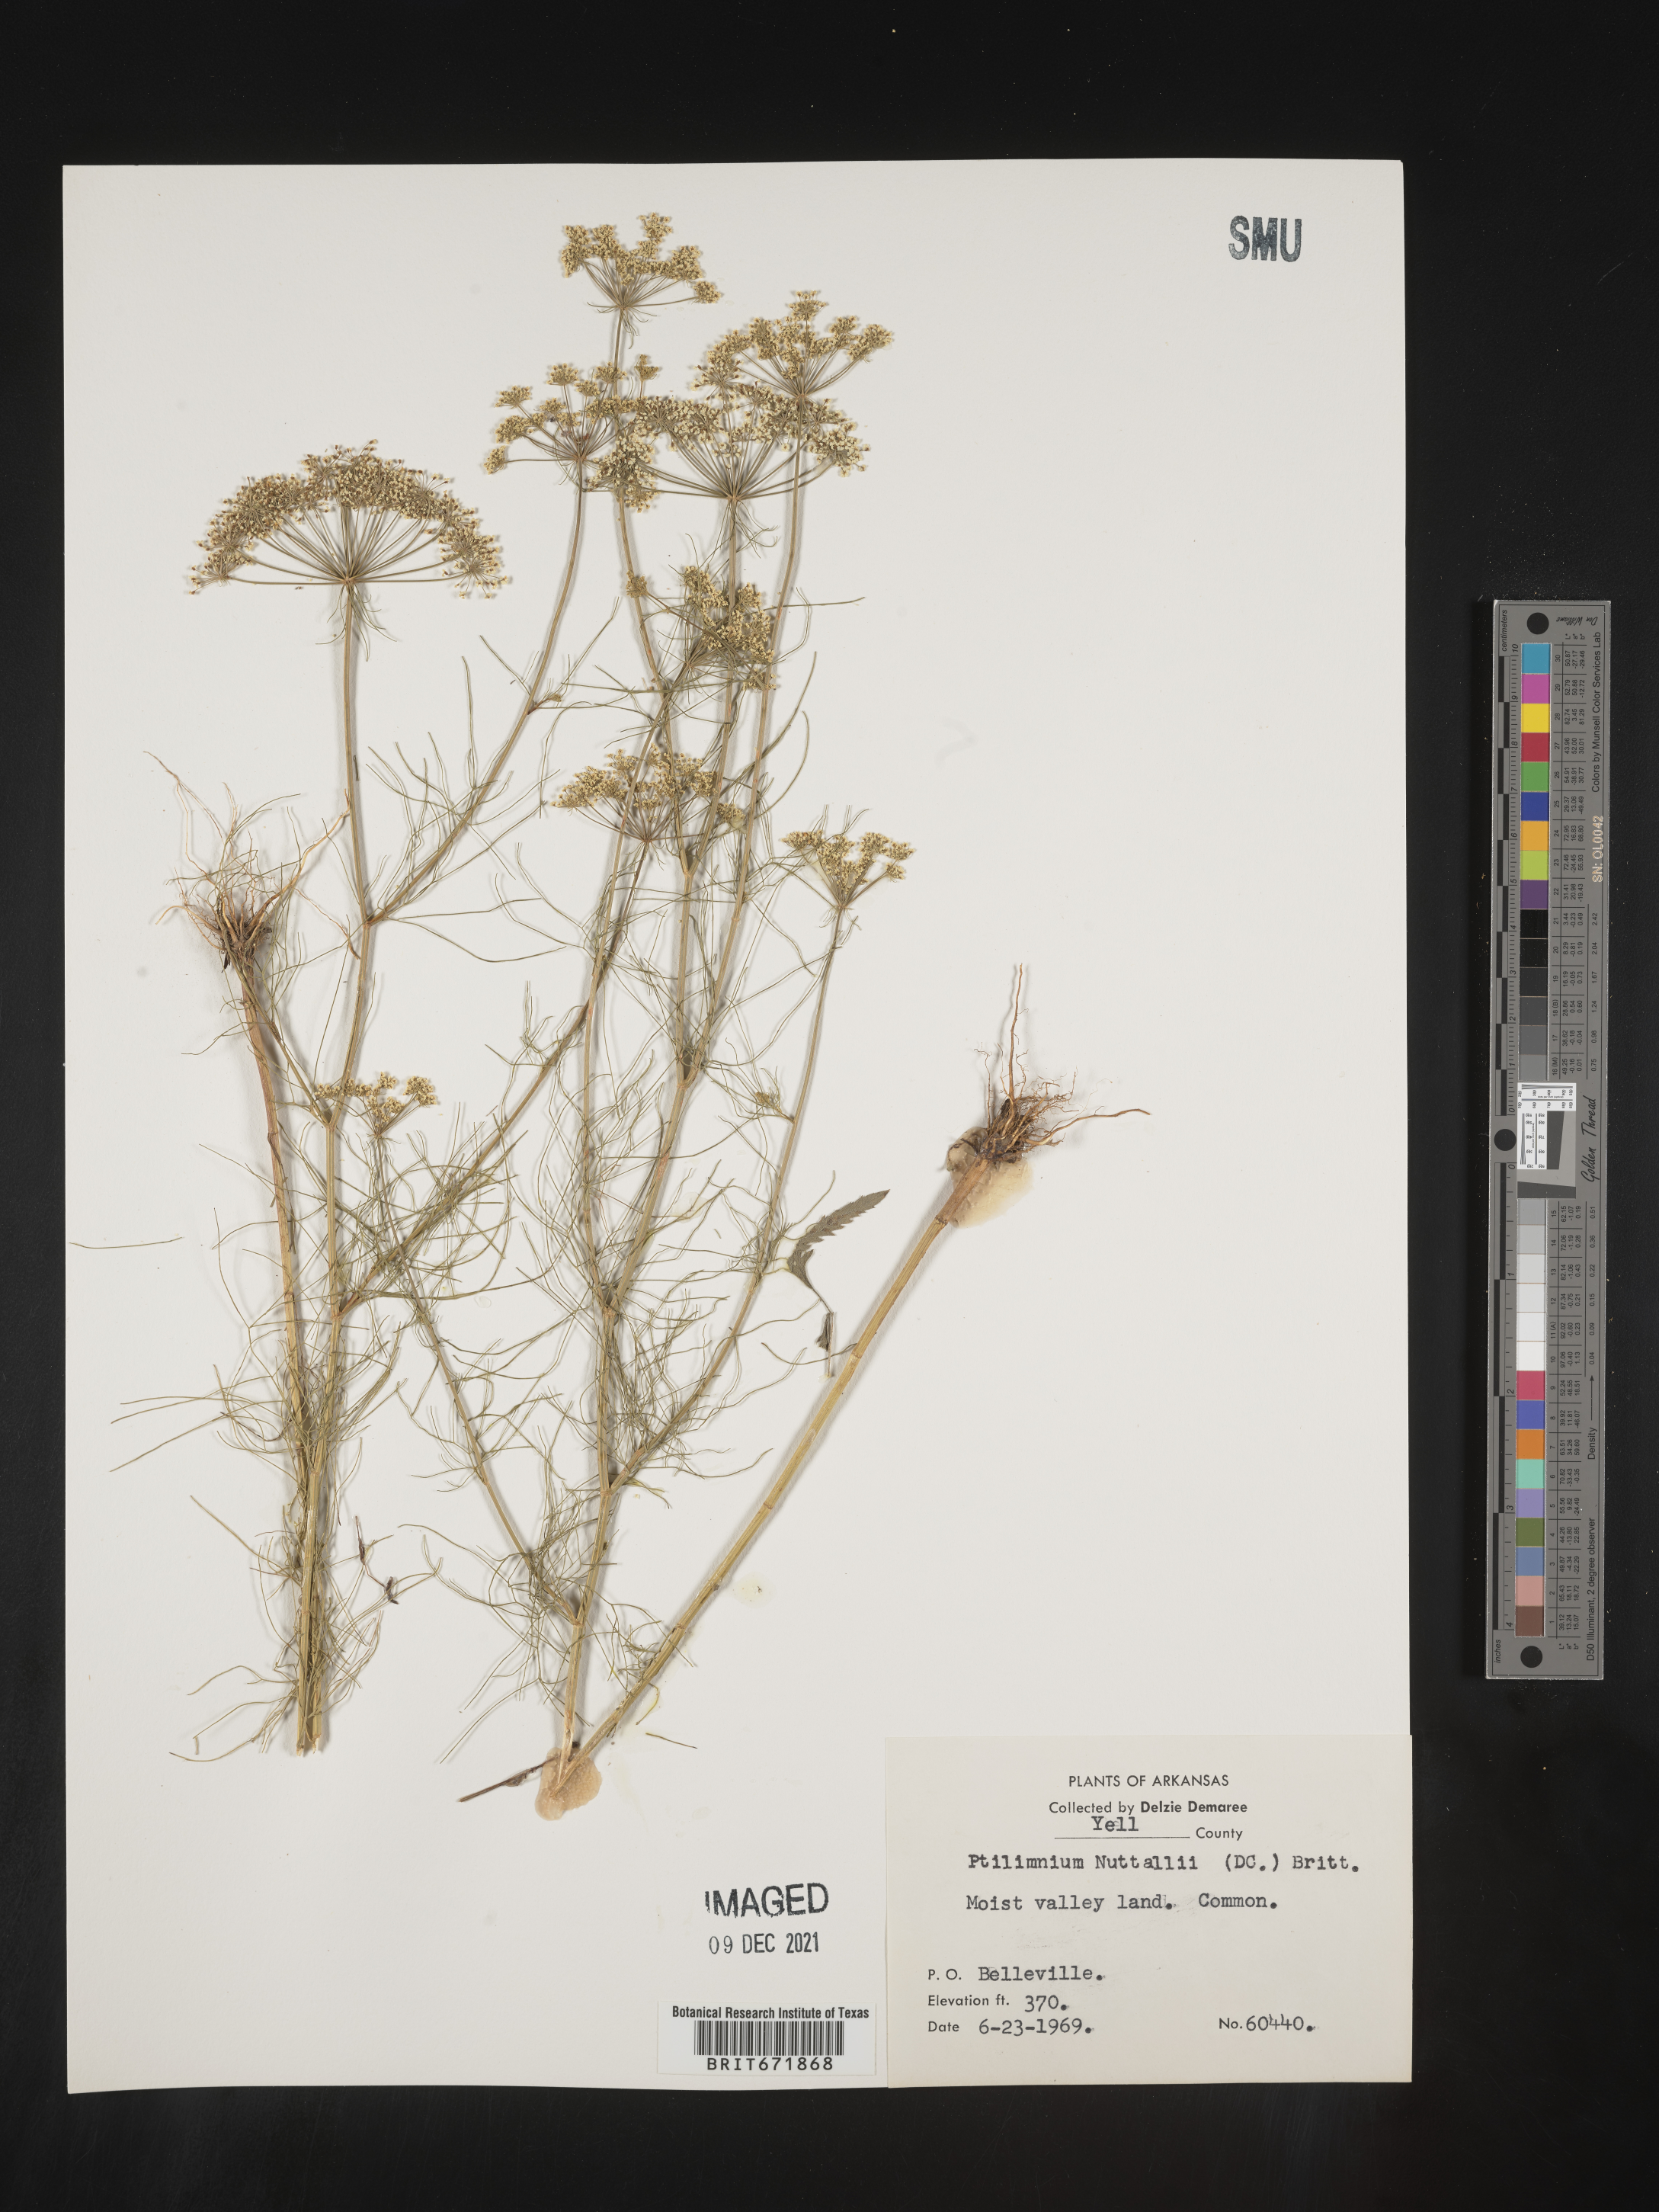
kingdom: Plantae
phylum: Tracheophyta
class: Magnoliopsida
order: Apiales
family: Apiaceae
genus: Ptilimnium
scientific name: Ptilimnium nuttallii
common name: Ozark bishop's-weed
